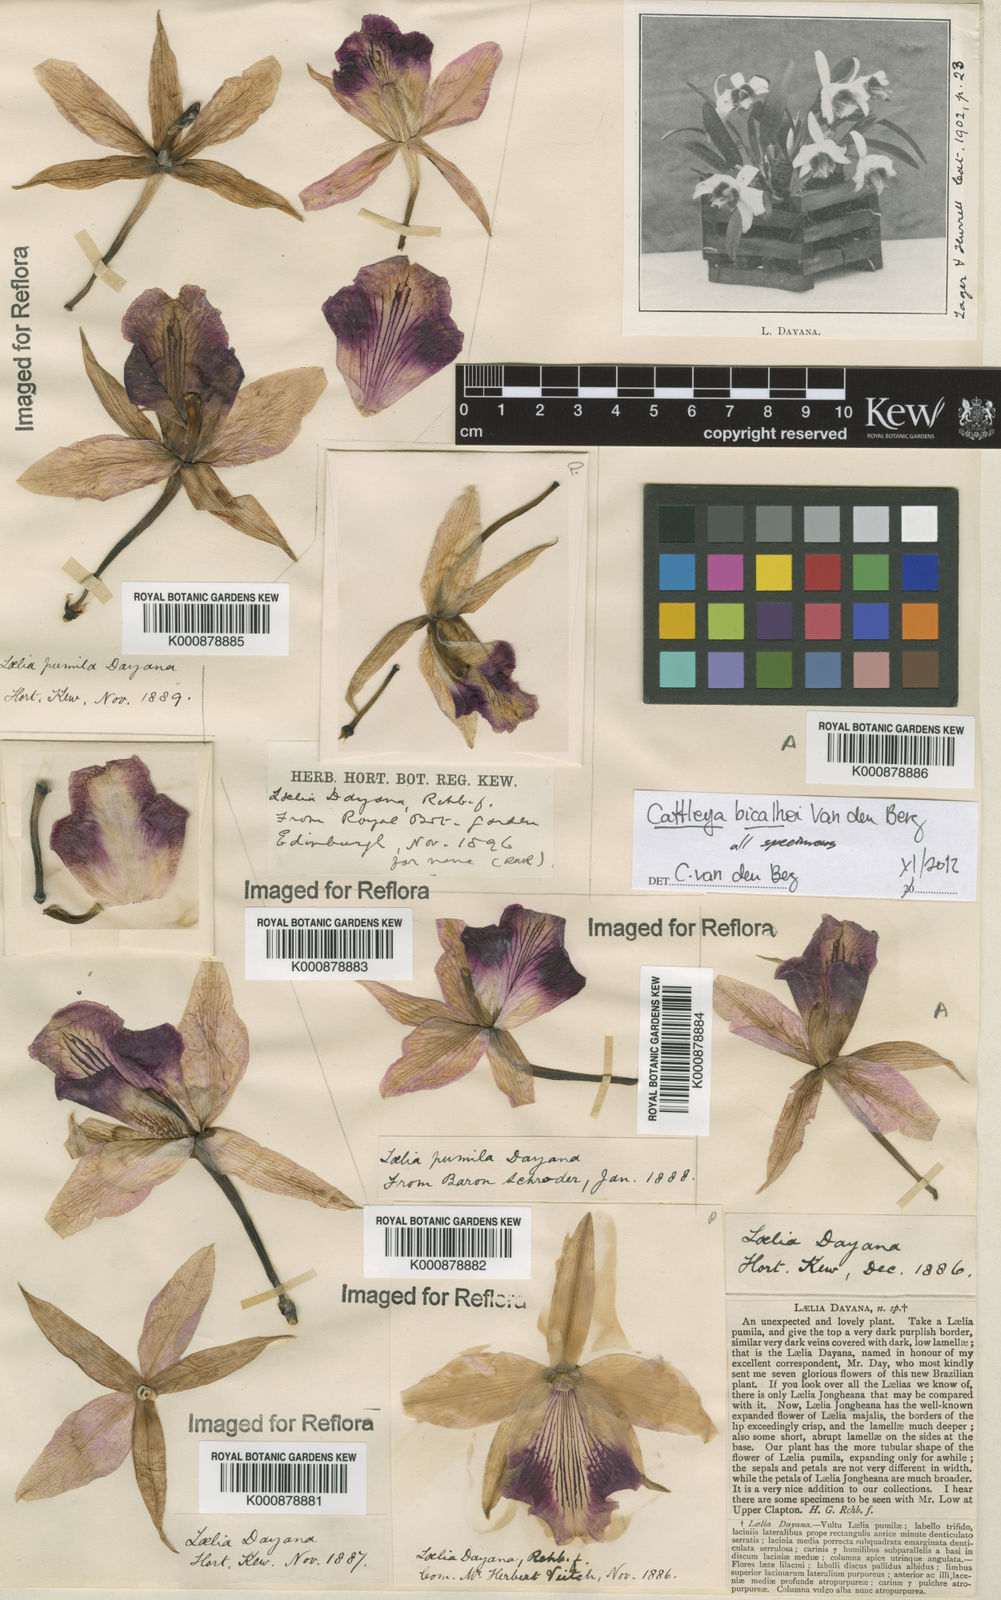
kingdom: Plantae
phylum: Tracheophyta
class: Liliopsida
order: Asparagales
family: Orchidaceae
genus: Cattleya
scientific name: Cattleya bicalhoi
